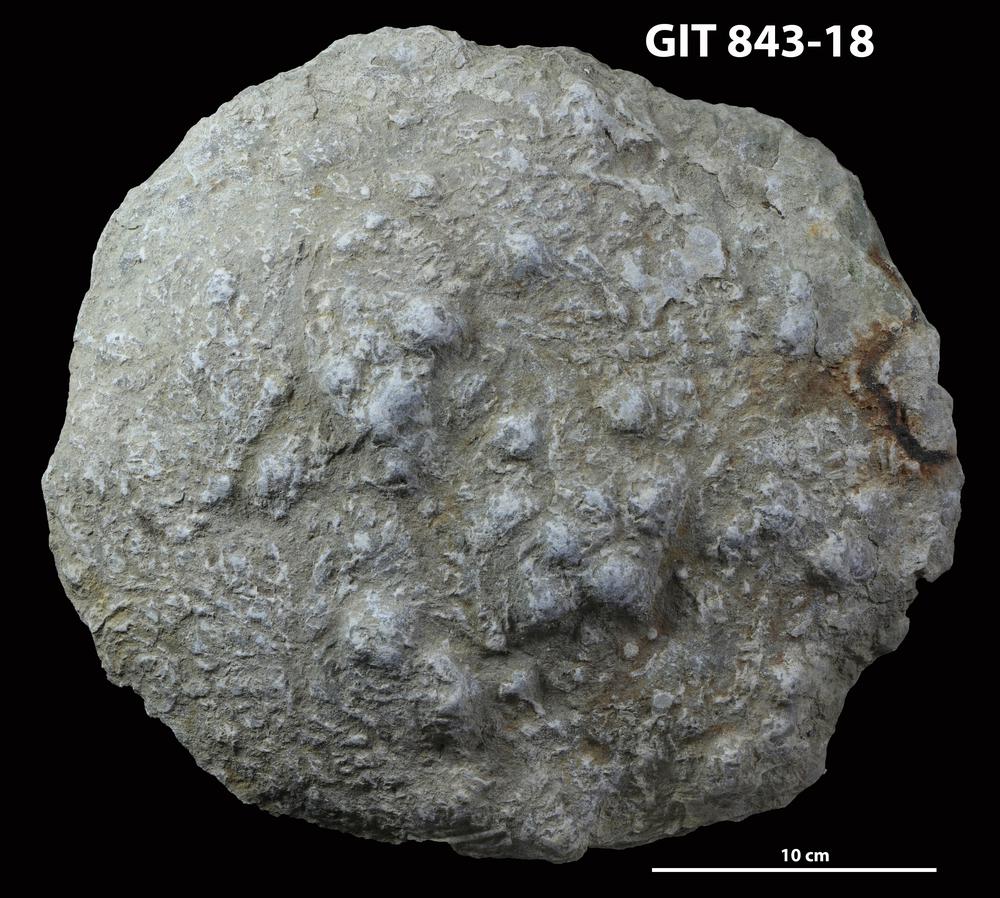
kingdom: Animalia
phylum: Porifera
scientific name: Porifera
